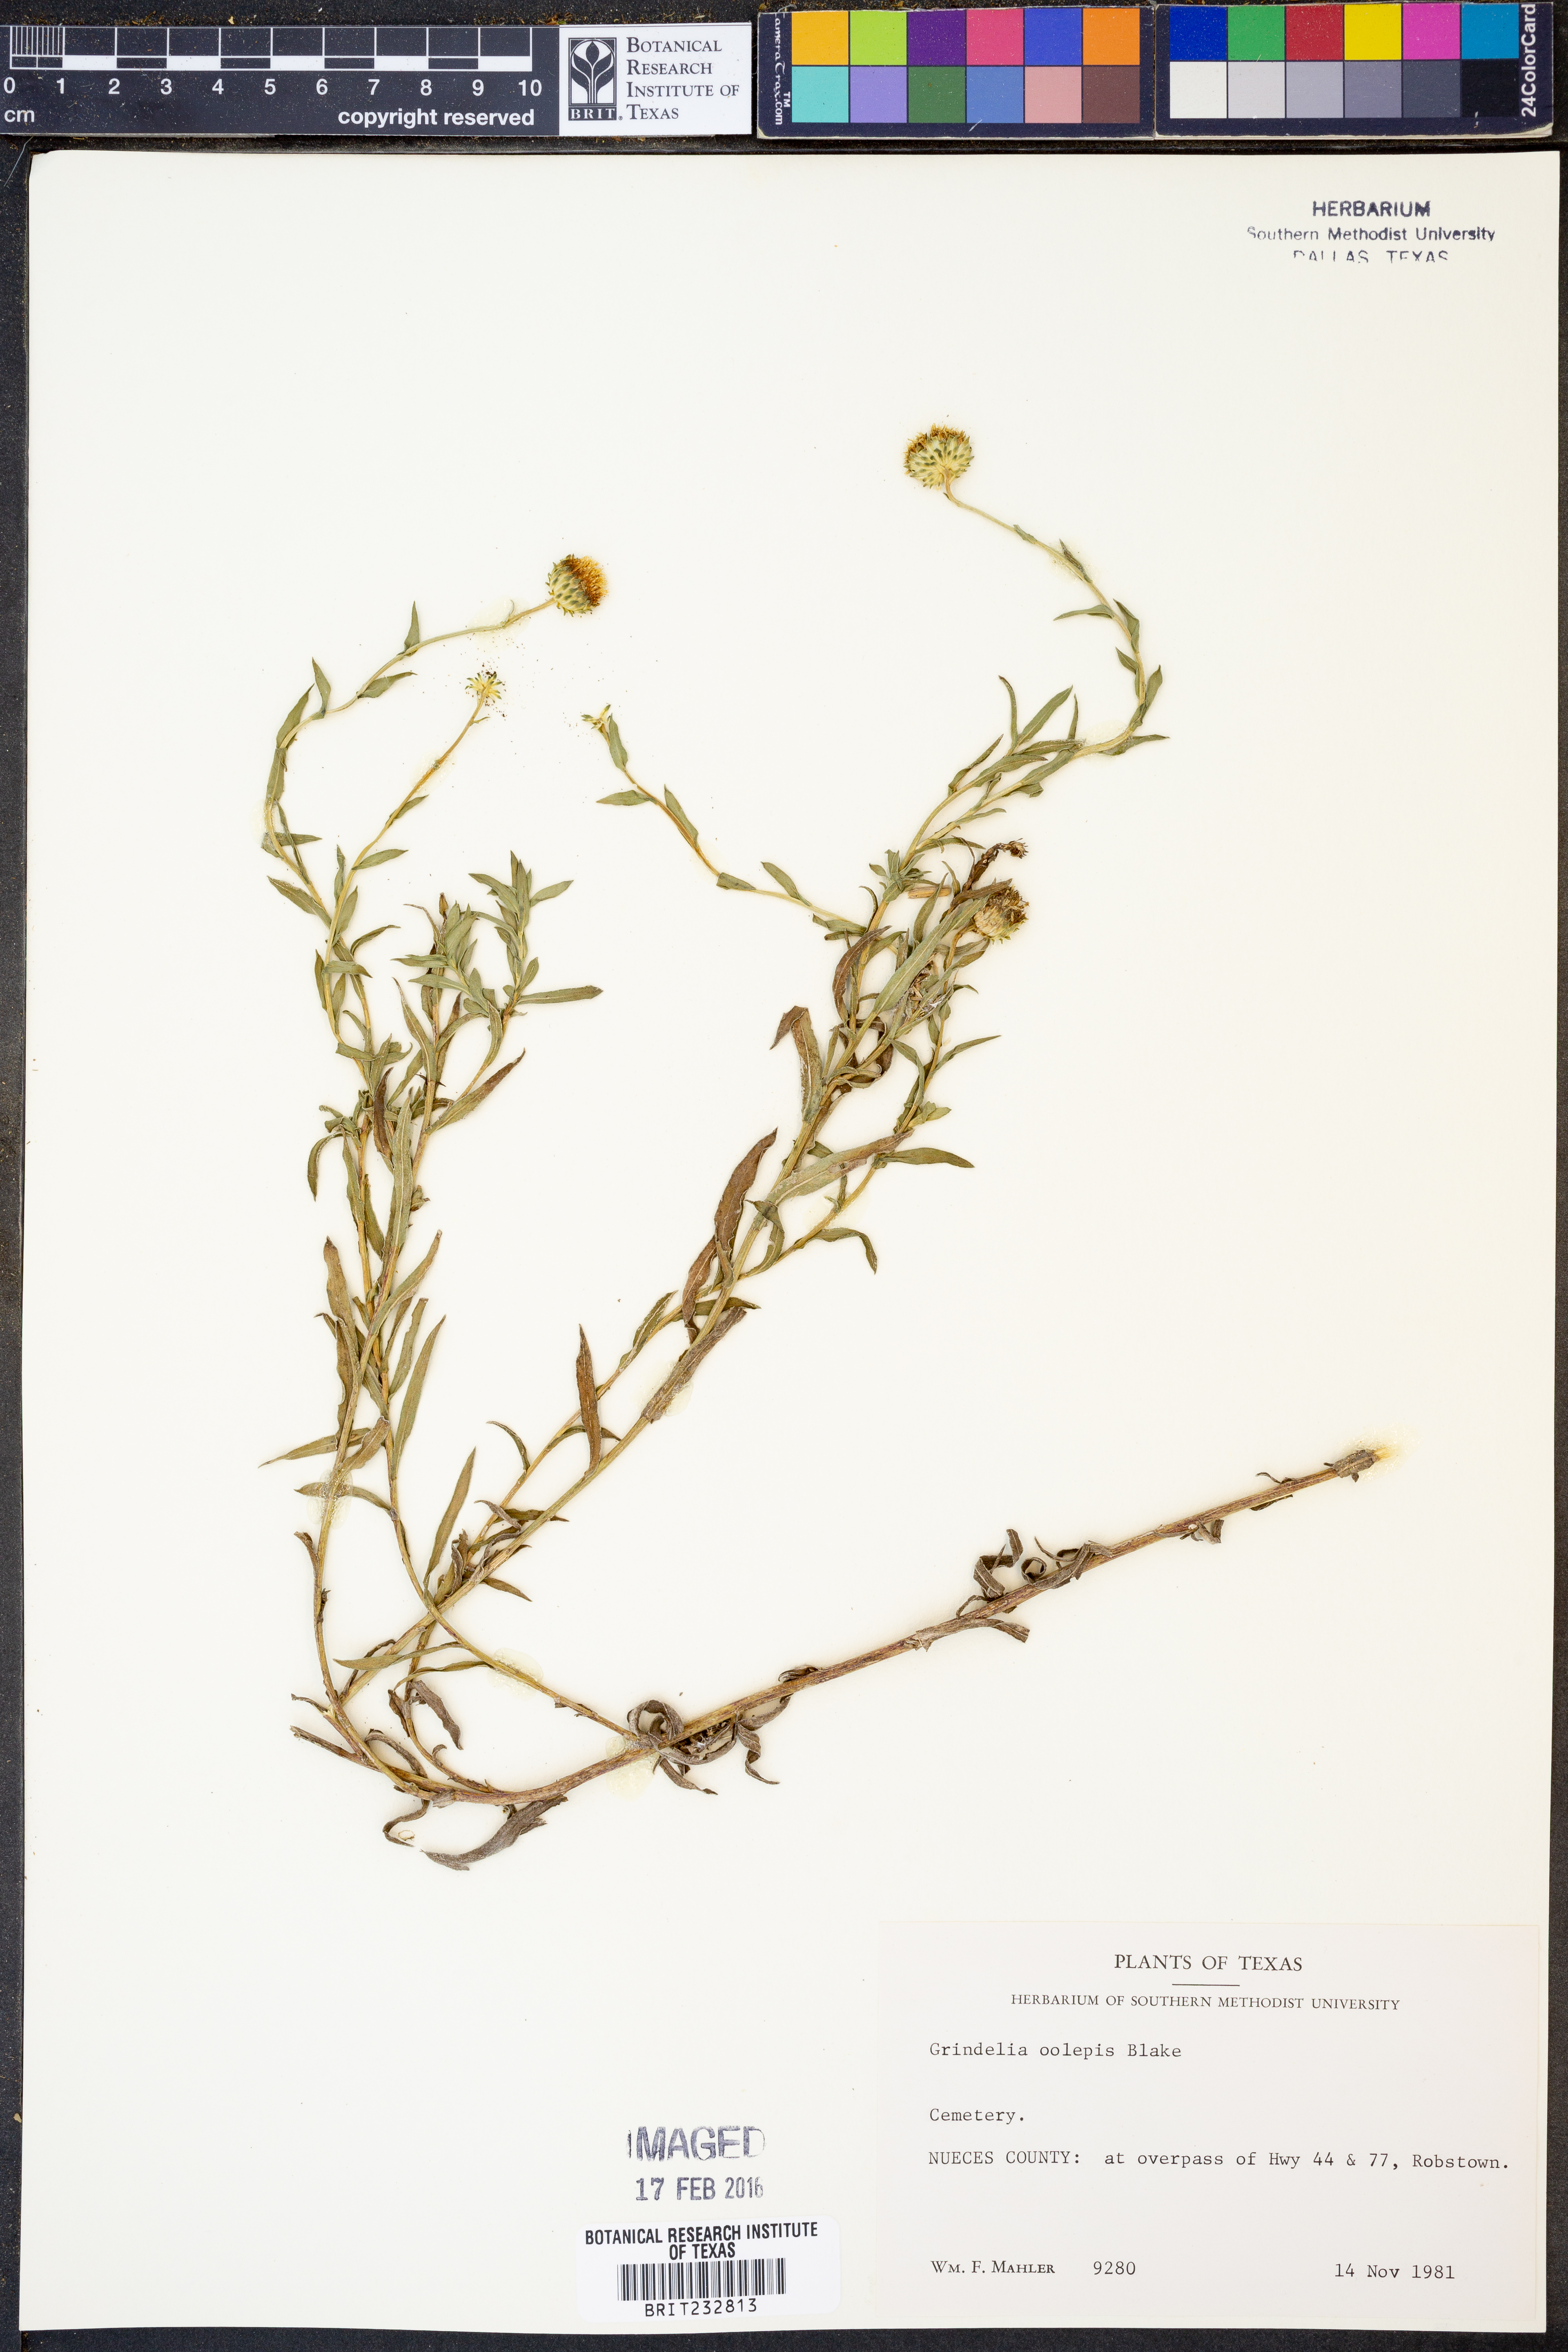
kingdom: Plantae
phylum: Tracheophyta
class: Magnoliopsida
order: Asterales
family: Asteraceae
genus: Grindelia
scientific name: Grindelia oolepis
